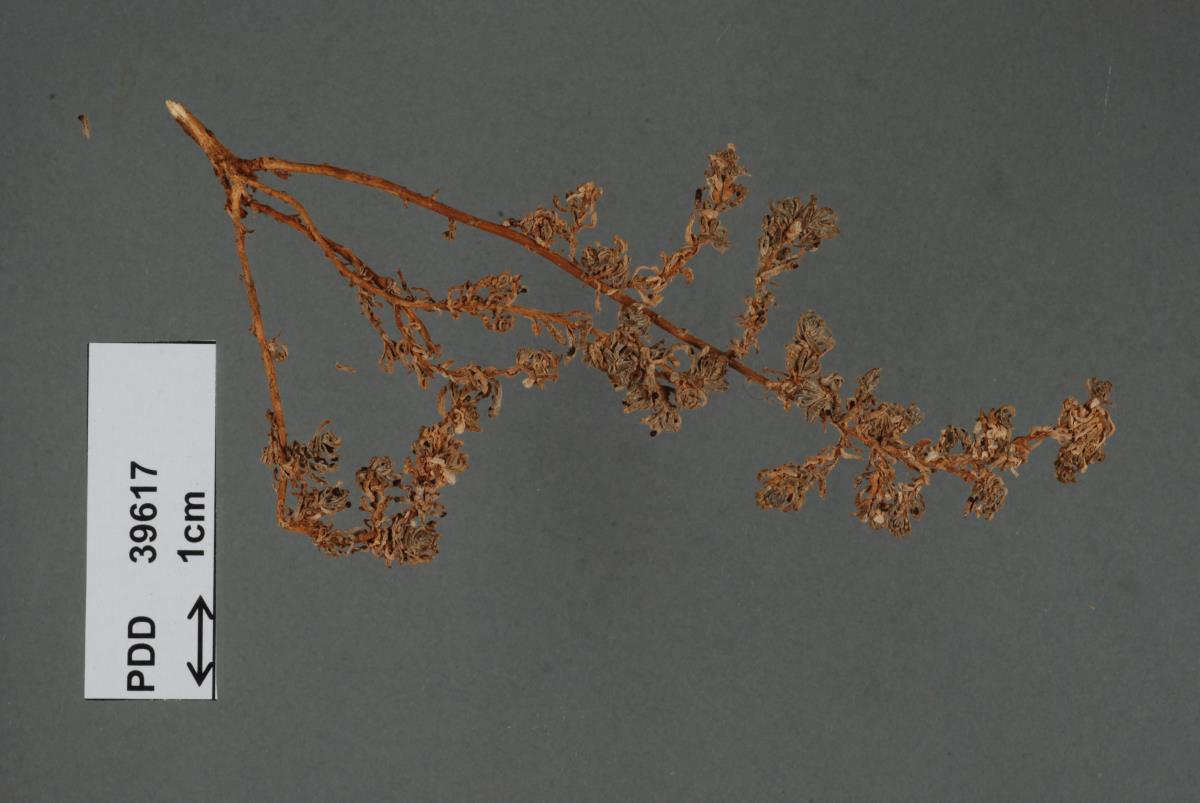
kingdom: Fungi
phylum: Basidiomycota
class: Pucciniomycetes
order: Pucciniales
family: Pucciniaceae
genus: Puccinia
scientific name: Puccinia babbagiae
